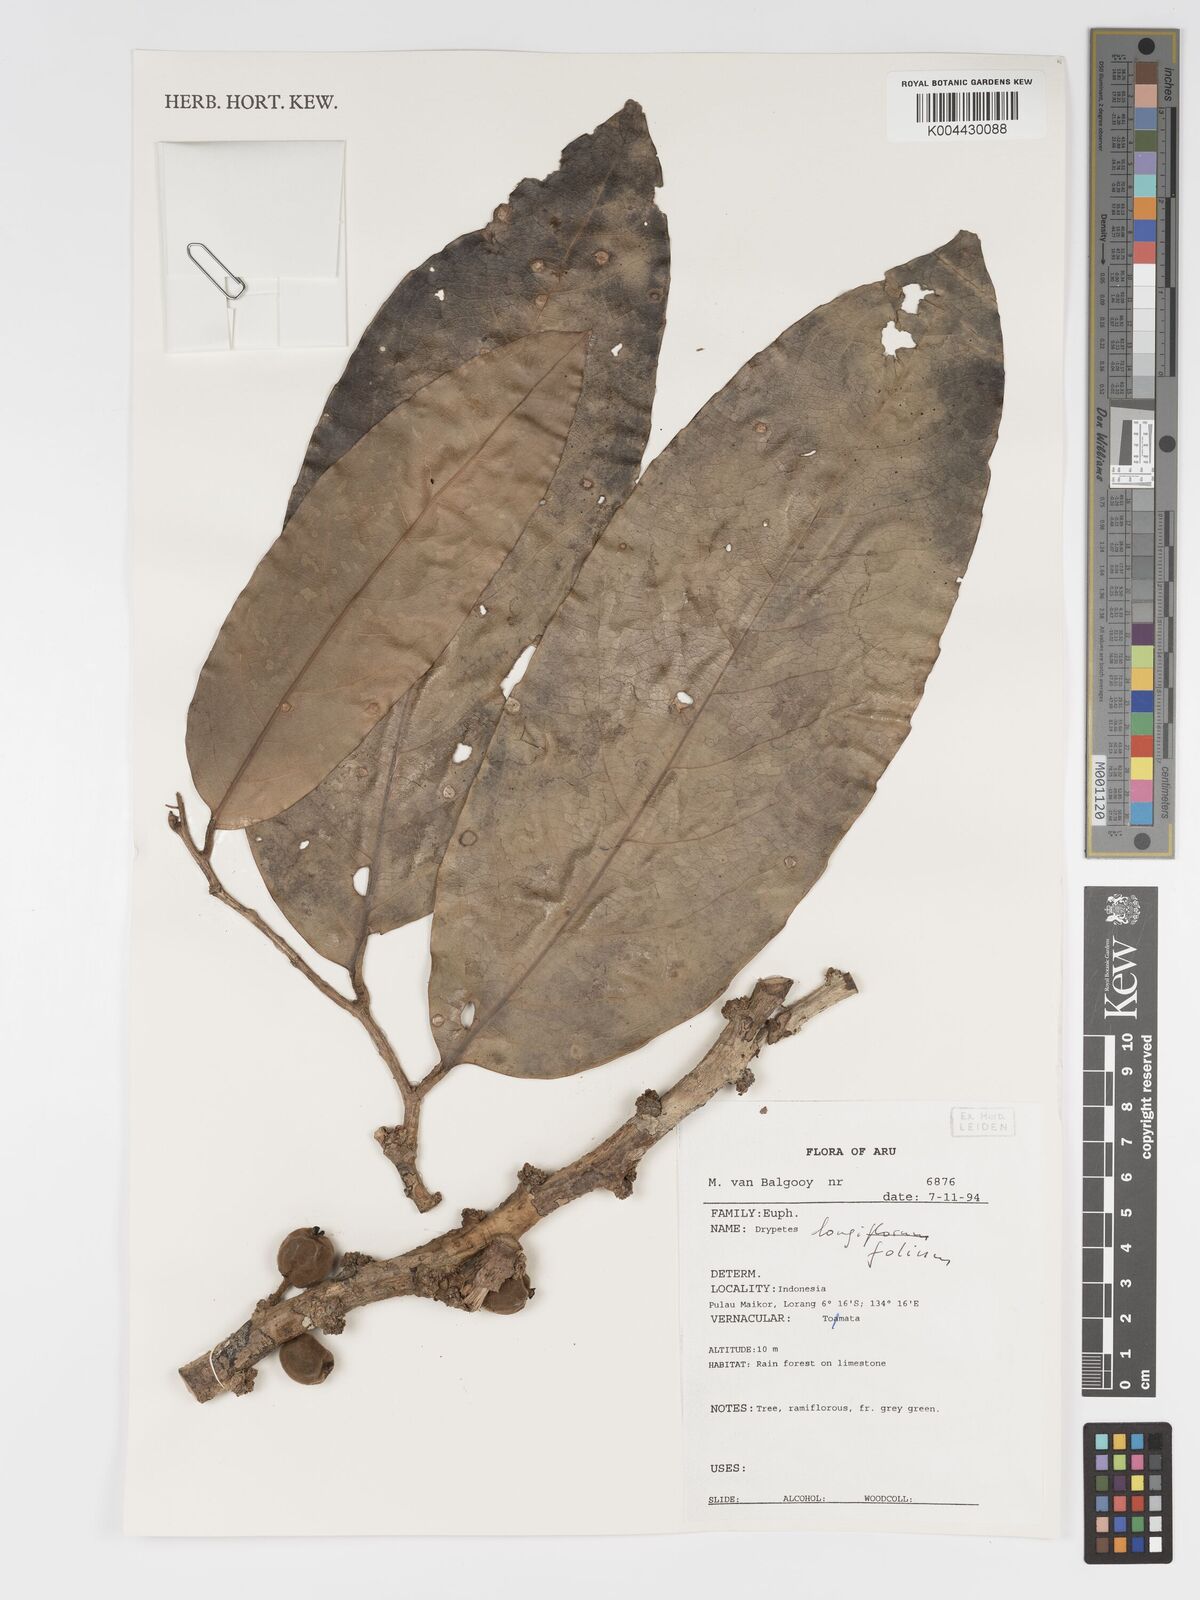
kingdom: Plantae
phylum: Tracheophyta
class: Magnoliopsida
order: Malpighiales
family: Putranjivaceae
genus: Drypetes
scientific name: Drypetes longifolia
